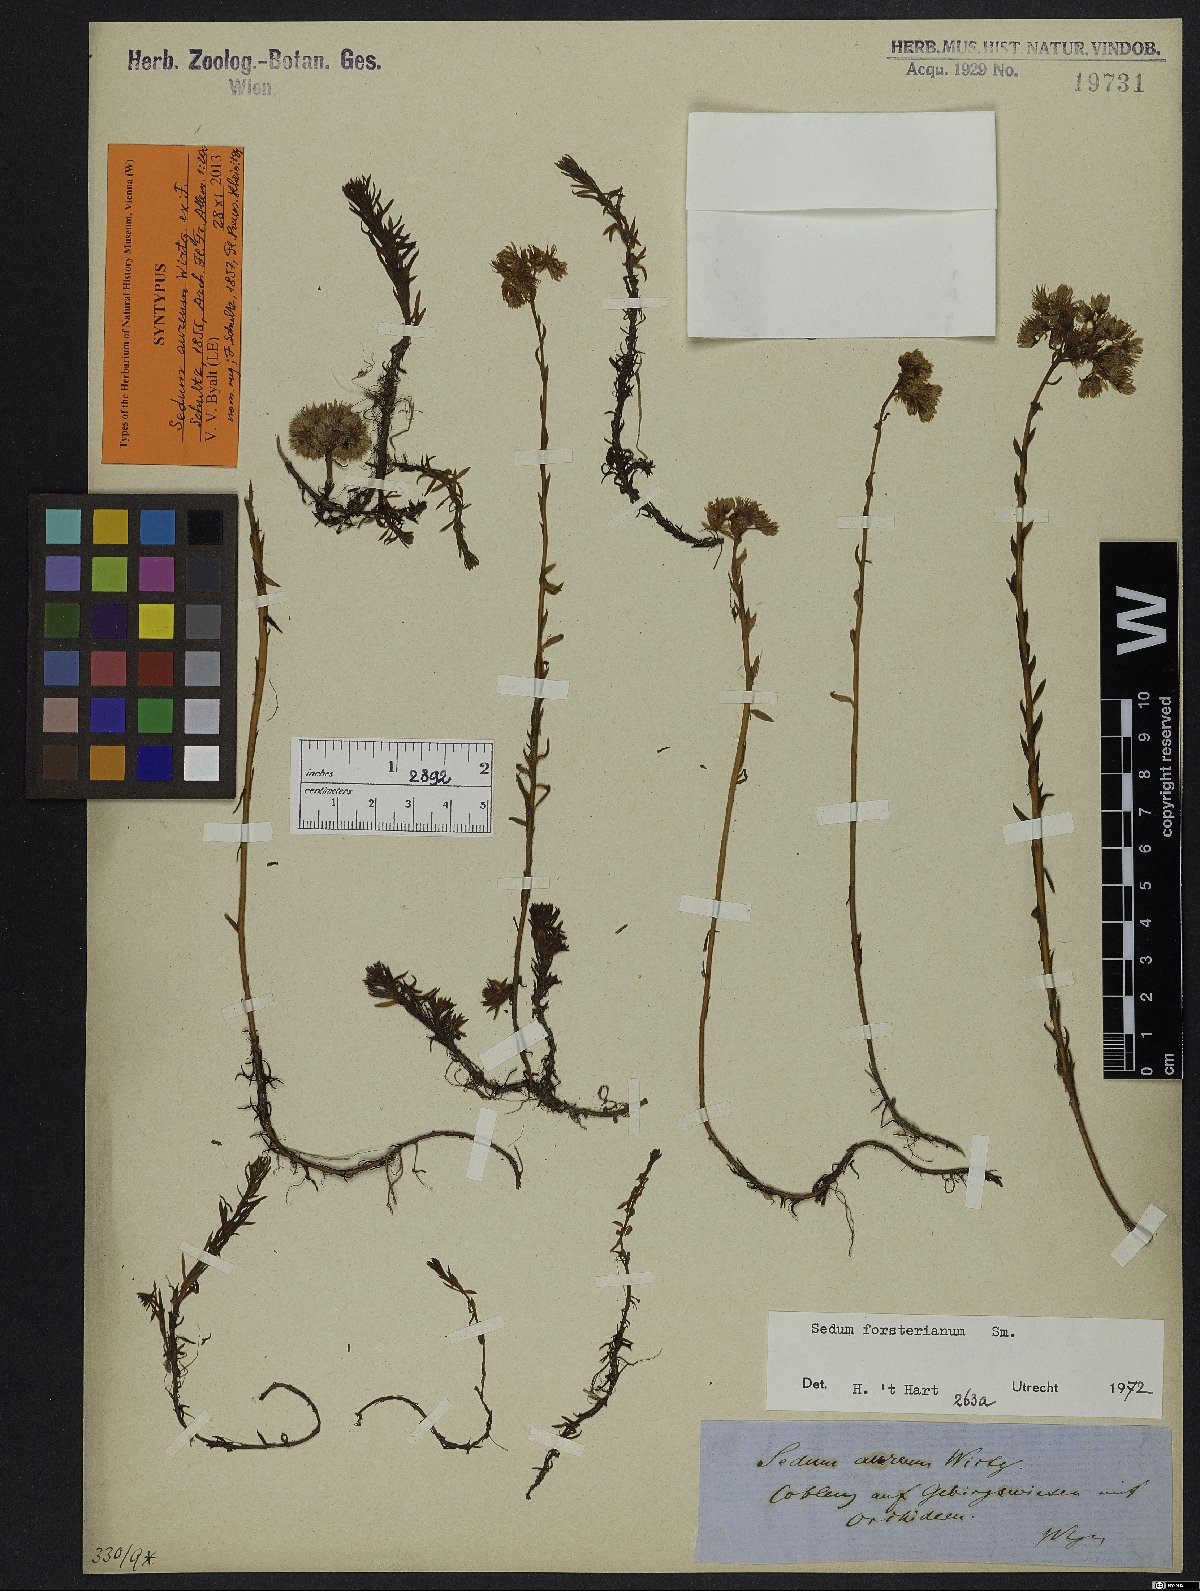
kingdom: Plantae
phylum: Tracheophyta
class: Magnoliopsida
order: Saxifragales
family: Crassulaceae
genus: Petrosedum
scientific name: Petrosedum forsterianum
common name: Forster's stonecrop
